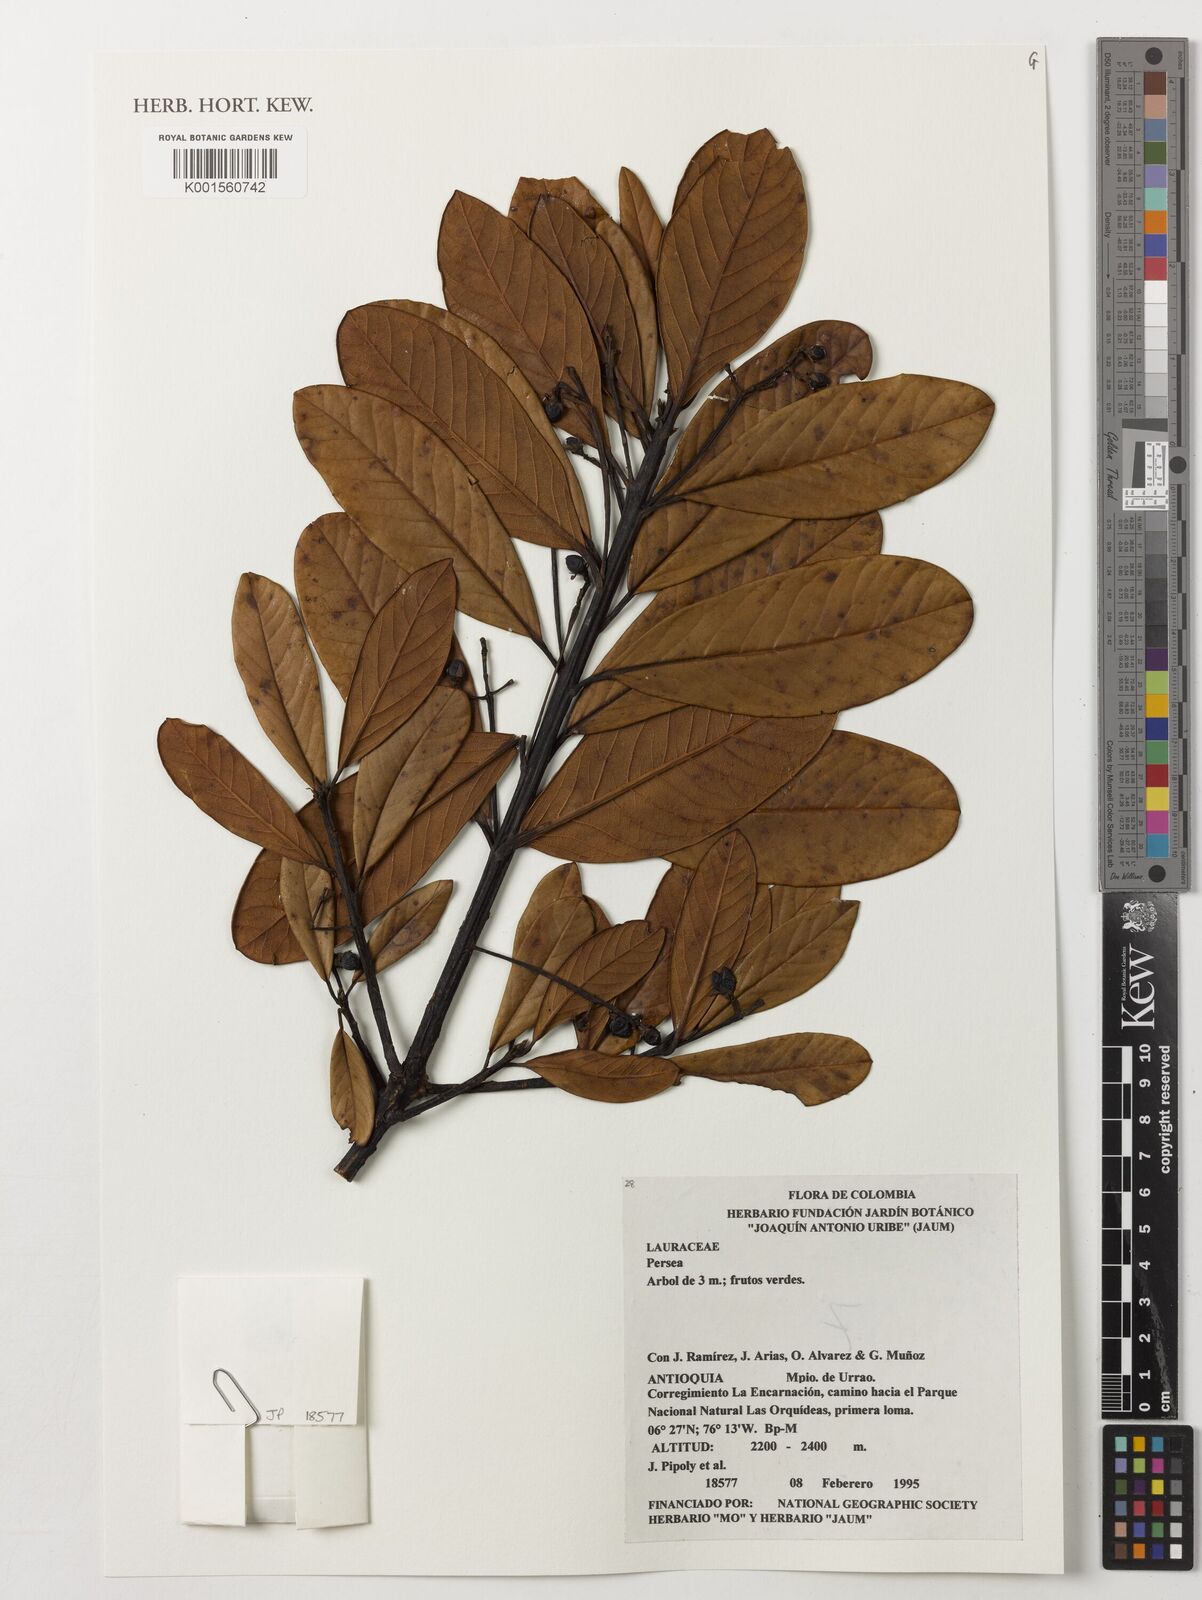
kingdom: Plantae
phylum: Tracheophyta
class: Magnoliopsida
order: Laurales
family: Lauraceae
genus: Persea
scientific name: Persea
